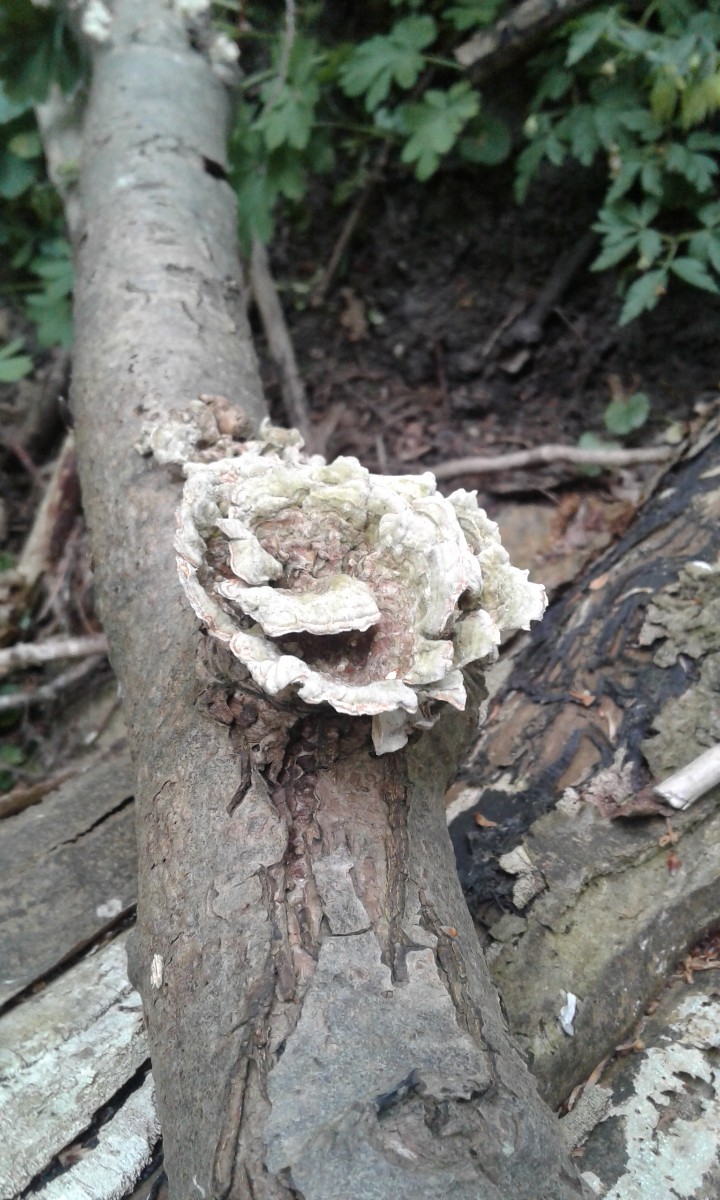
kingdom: Fungi
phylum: Basidiomycota
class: Agaricomycetes
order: Polyporales
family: Polyporaceae
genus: Trametes
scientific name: Trametes versicolor
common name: broget læderporesvamp
